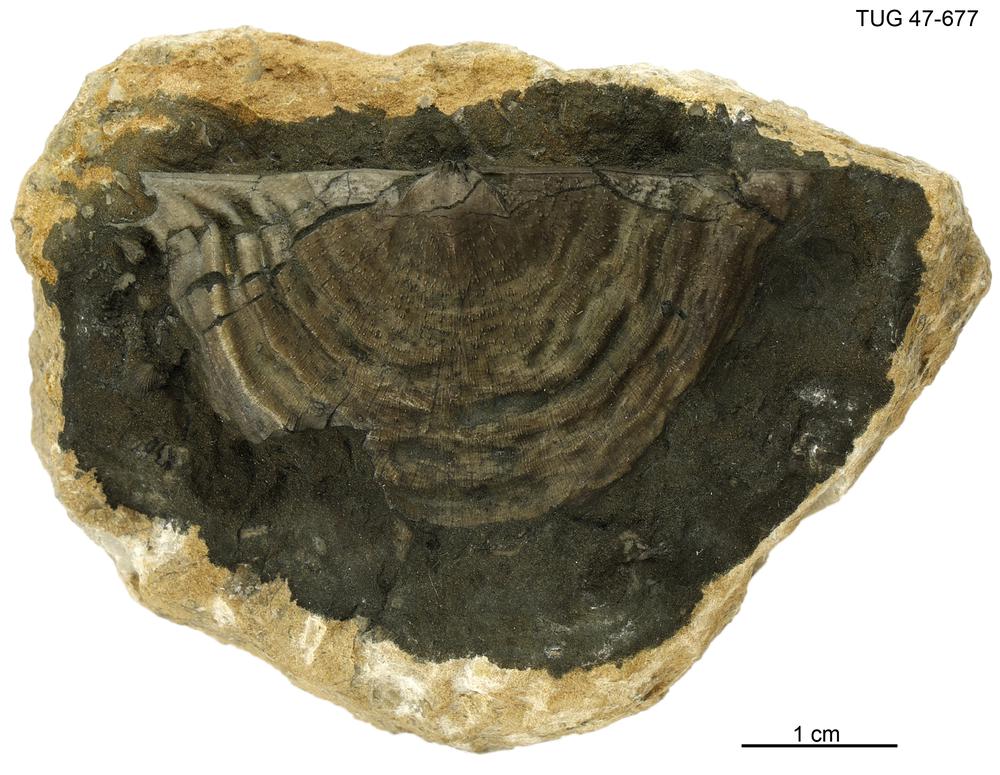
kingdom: Animalia
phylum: Brachiopoda
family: Rafinesquinidae
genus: Kiaeromena
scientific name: Kiaeromena Leptaena estonensis
